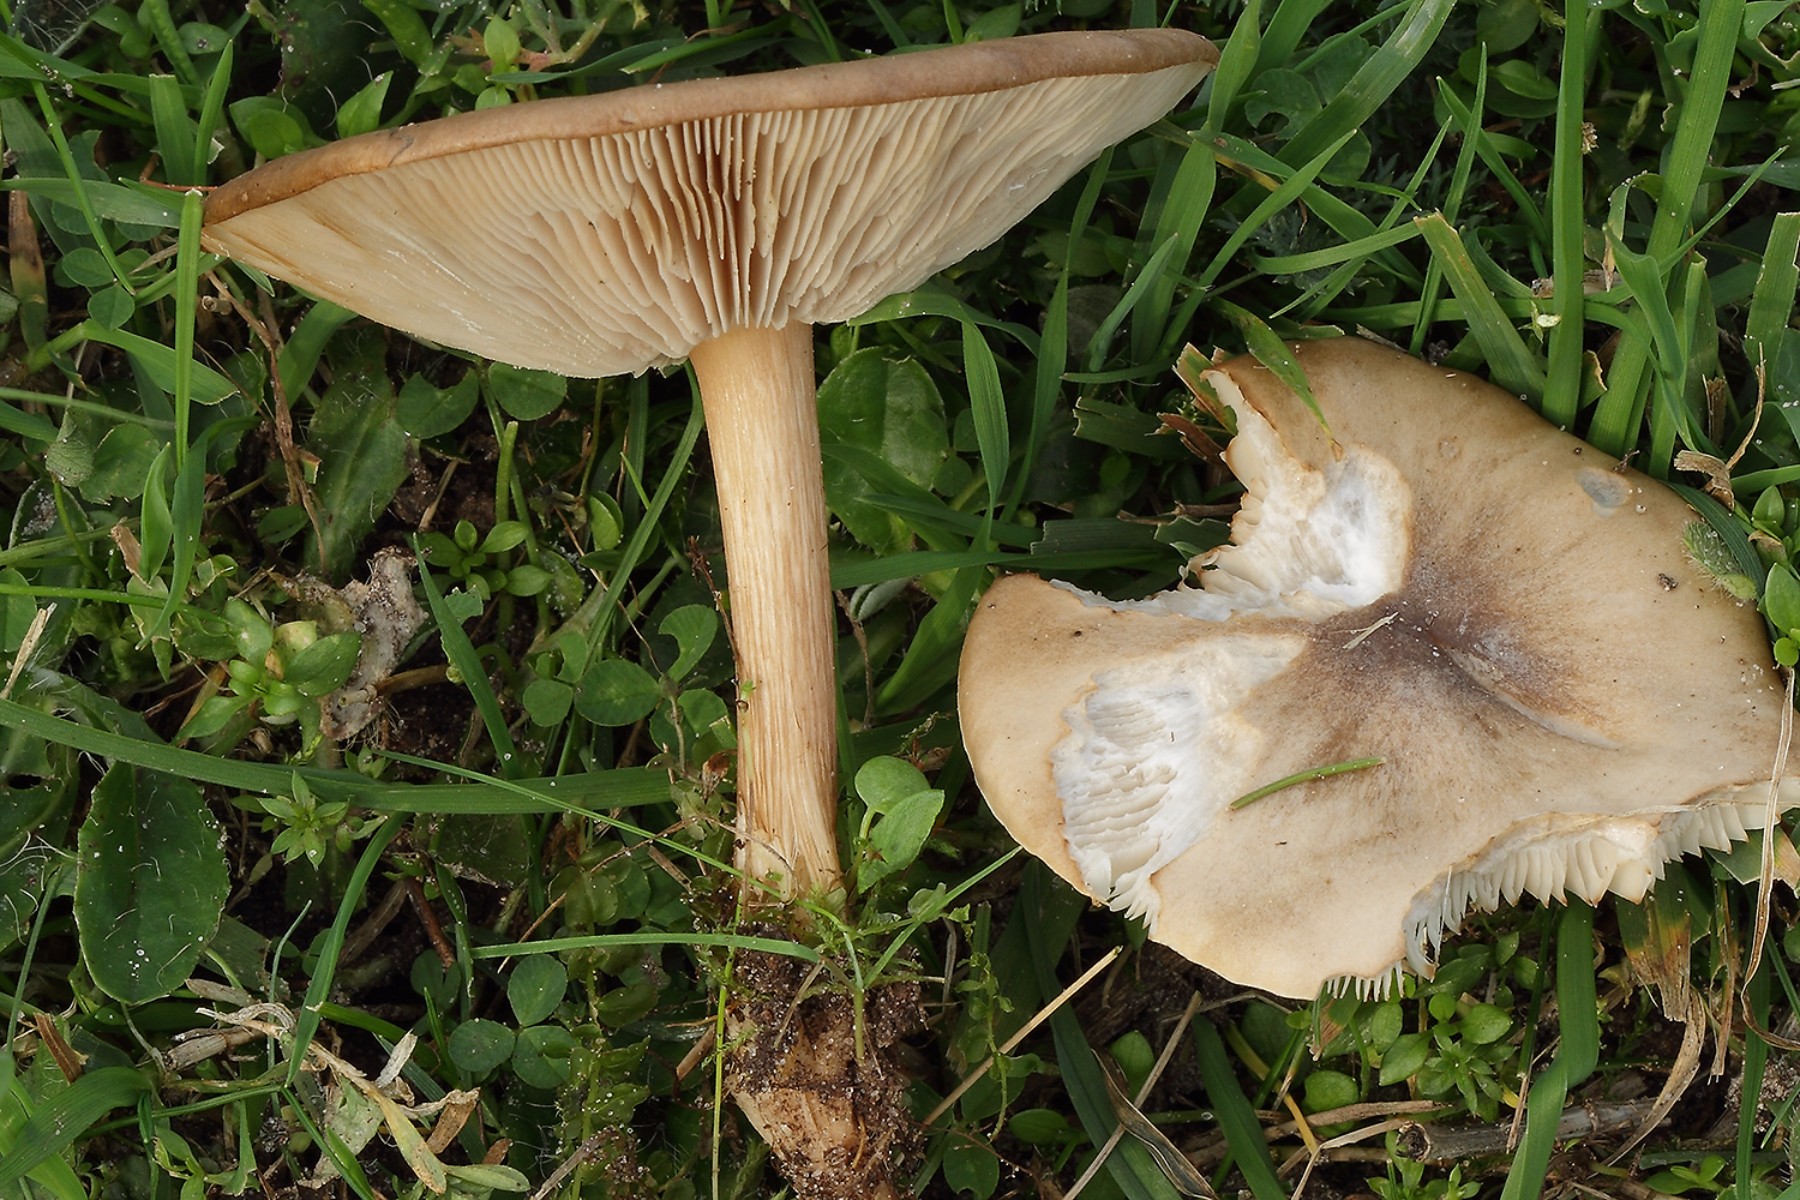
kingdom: Fungi
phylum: Basidiomycota
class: Agaricomycetes
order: Agaricales
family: Tricholomataceae
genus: Melanoleuca
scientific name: Melanoleuca grammopodia
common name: stribestokket munkehat
